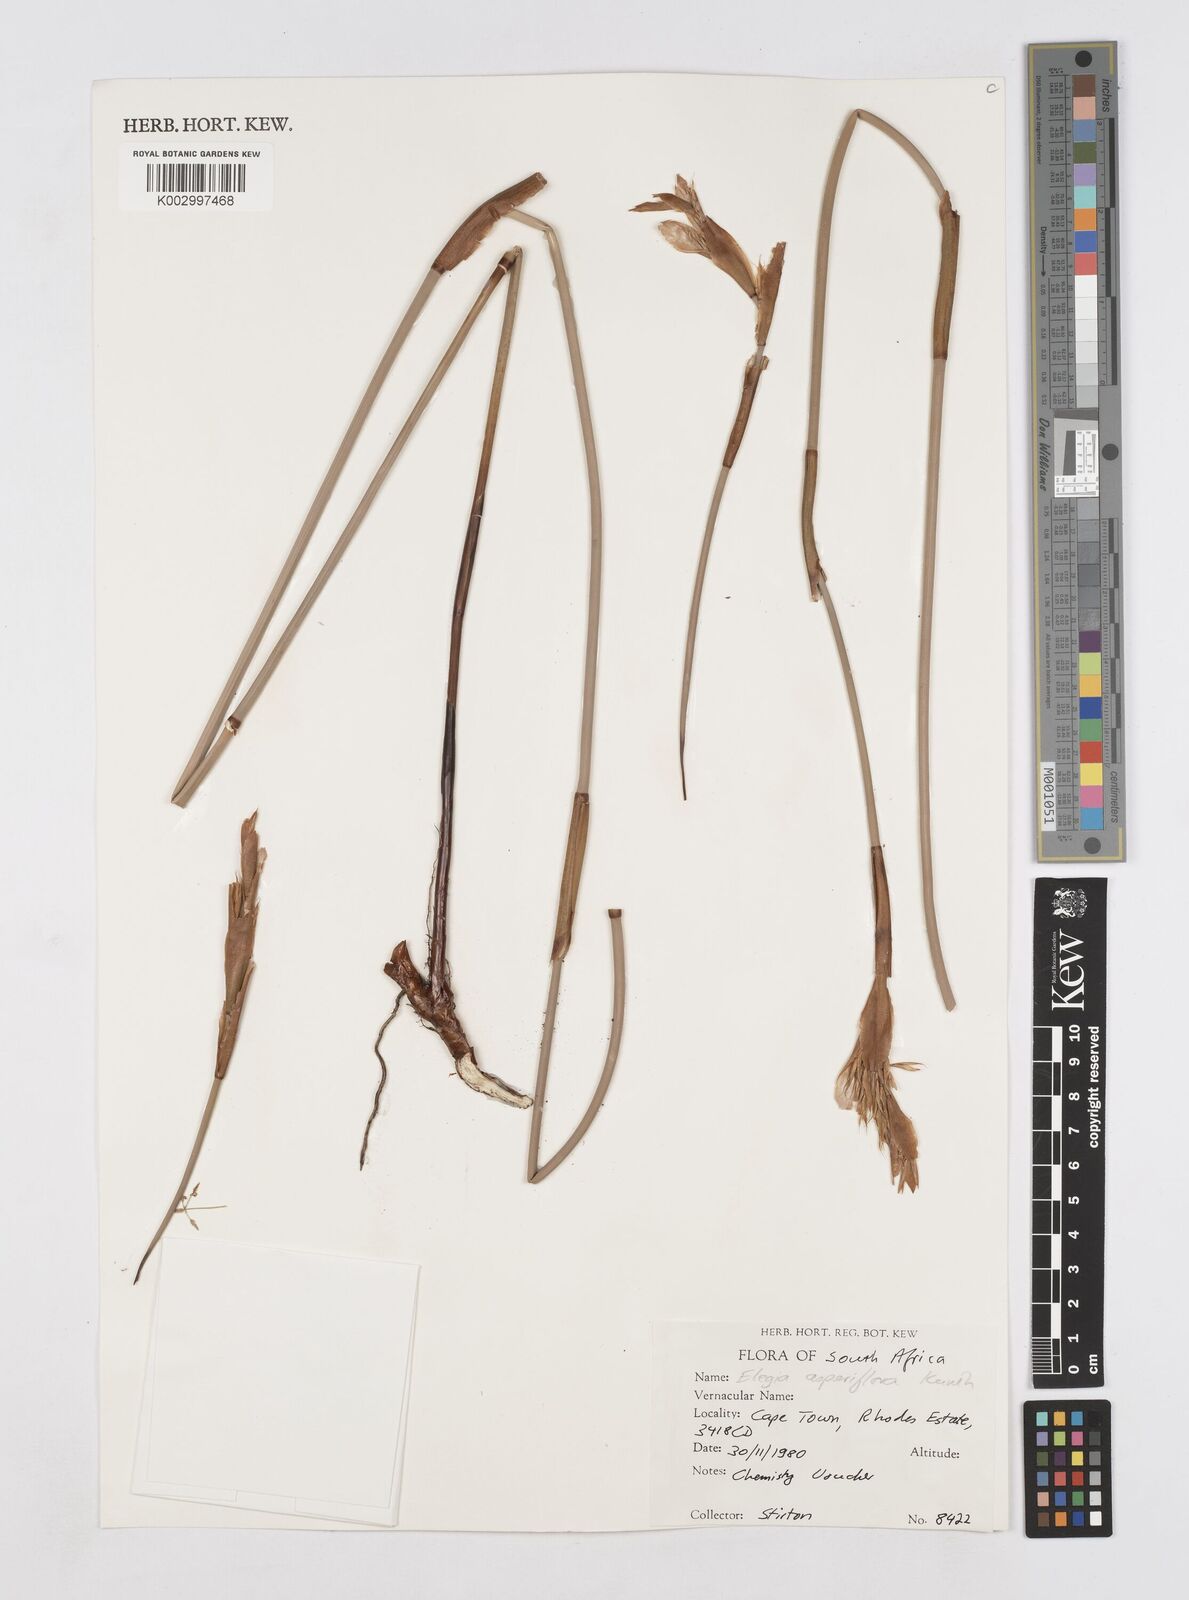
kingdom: Plantae
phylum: Tracheophyta
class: Liliopsida
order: Poales
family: Restionaceae
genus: Elegia
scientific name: Elegia asperiflora
